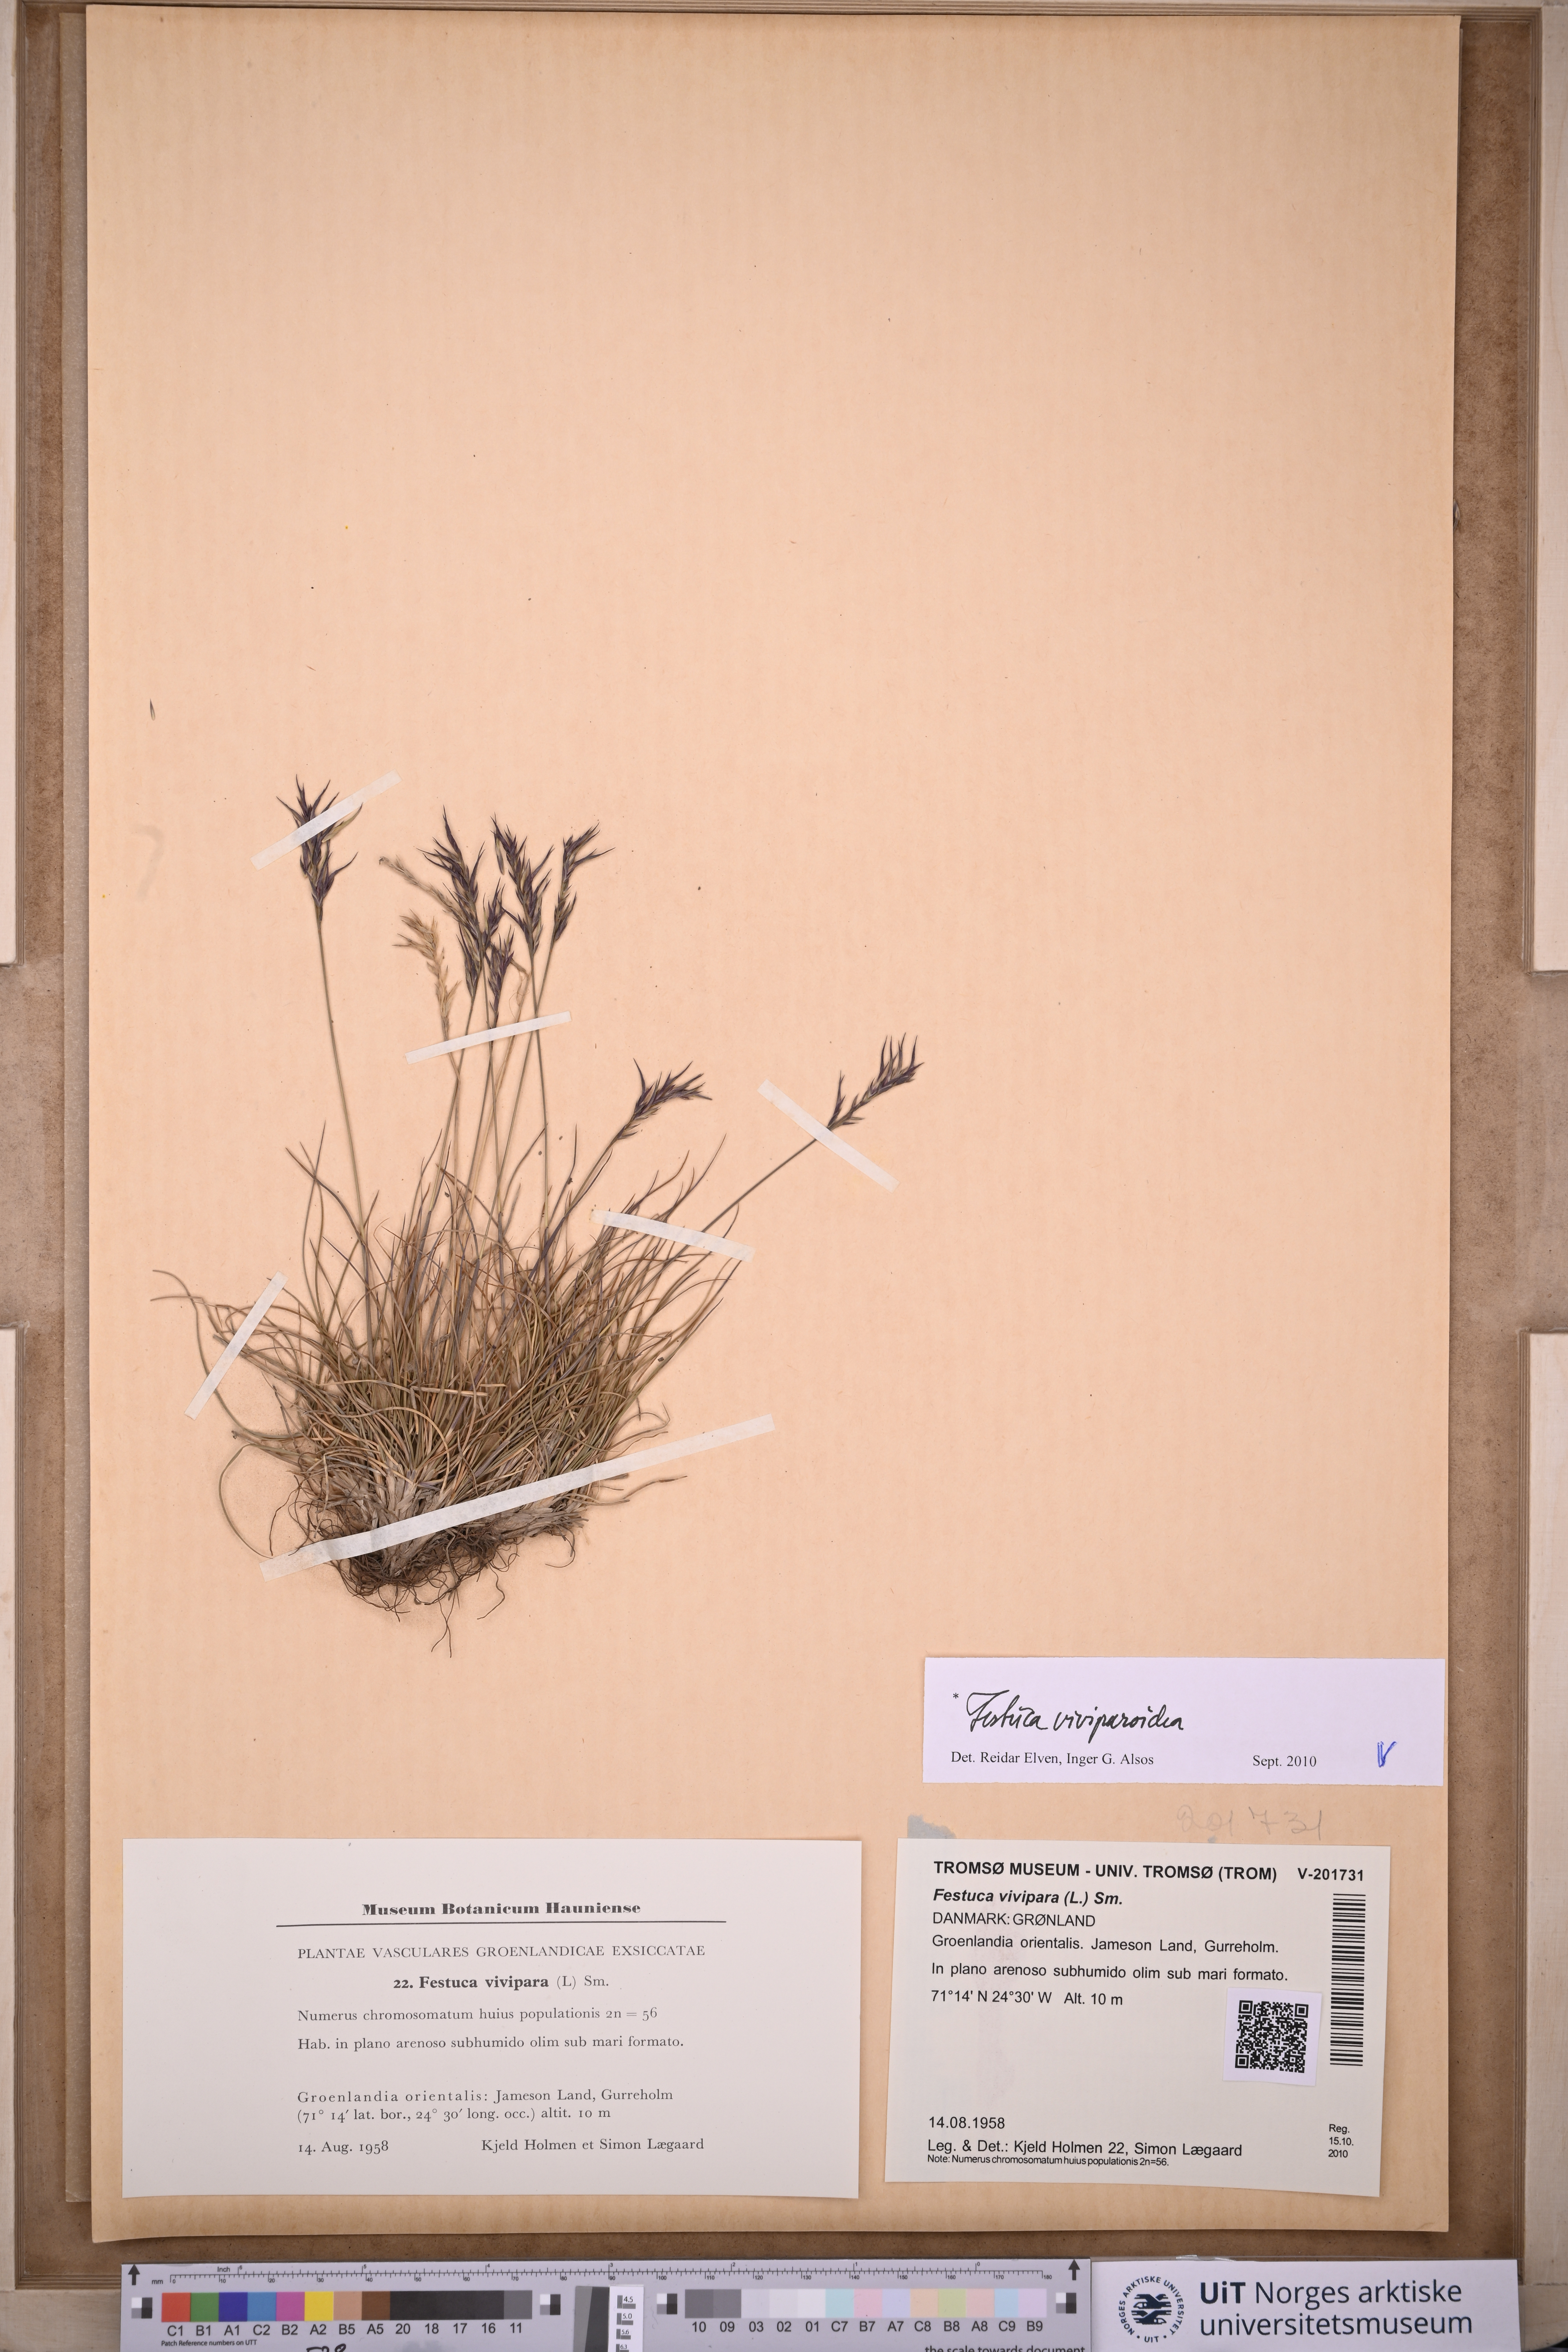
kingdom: Plantae
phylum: Tracheophyta
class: Liliopsida
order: Poales
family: Poaceae
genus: Festuca
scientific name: Festuca viviparoidea
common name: Northern fescue
